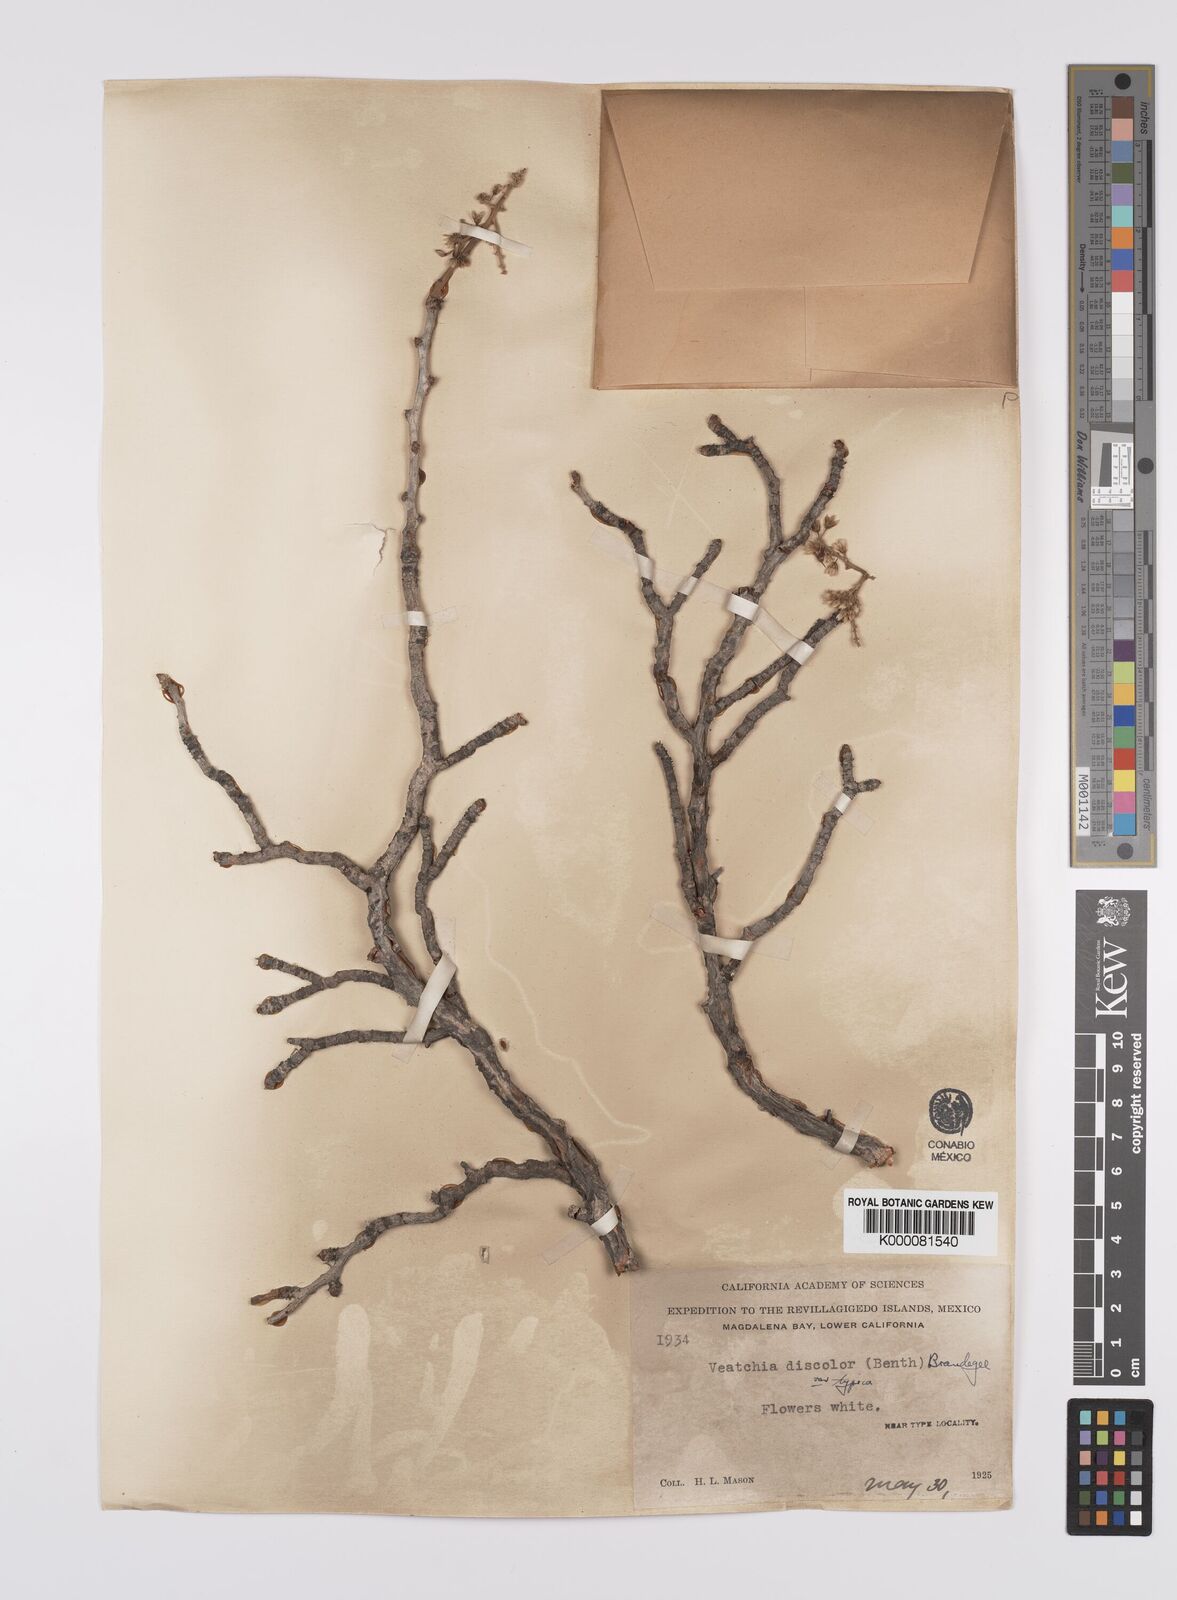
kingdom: Plantae
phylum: Tracheophyta
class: Magnoliopsida
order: Sapindales
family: Anacardiaceae
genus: Pachycormus
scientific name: Pachycormus
